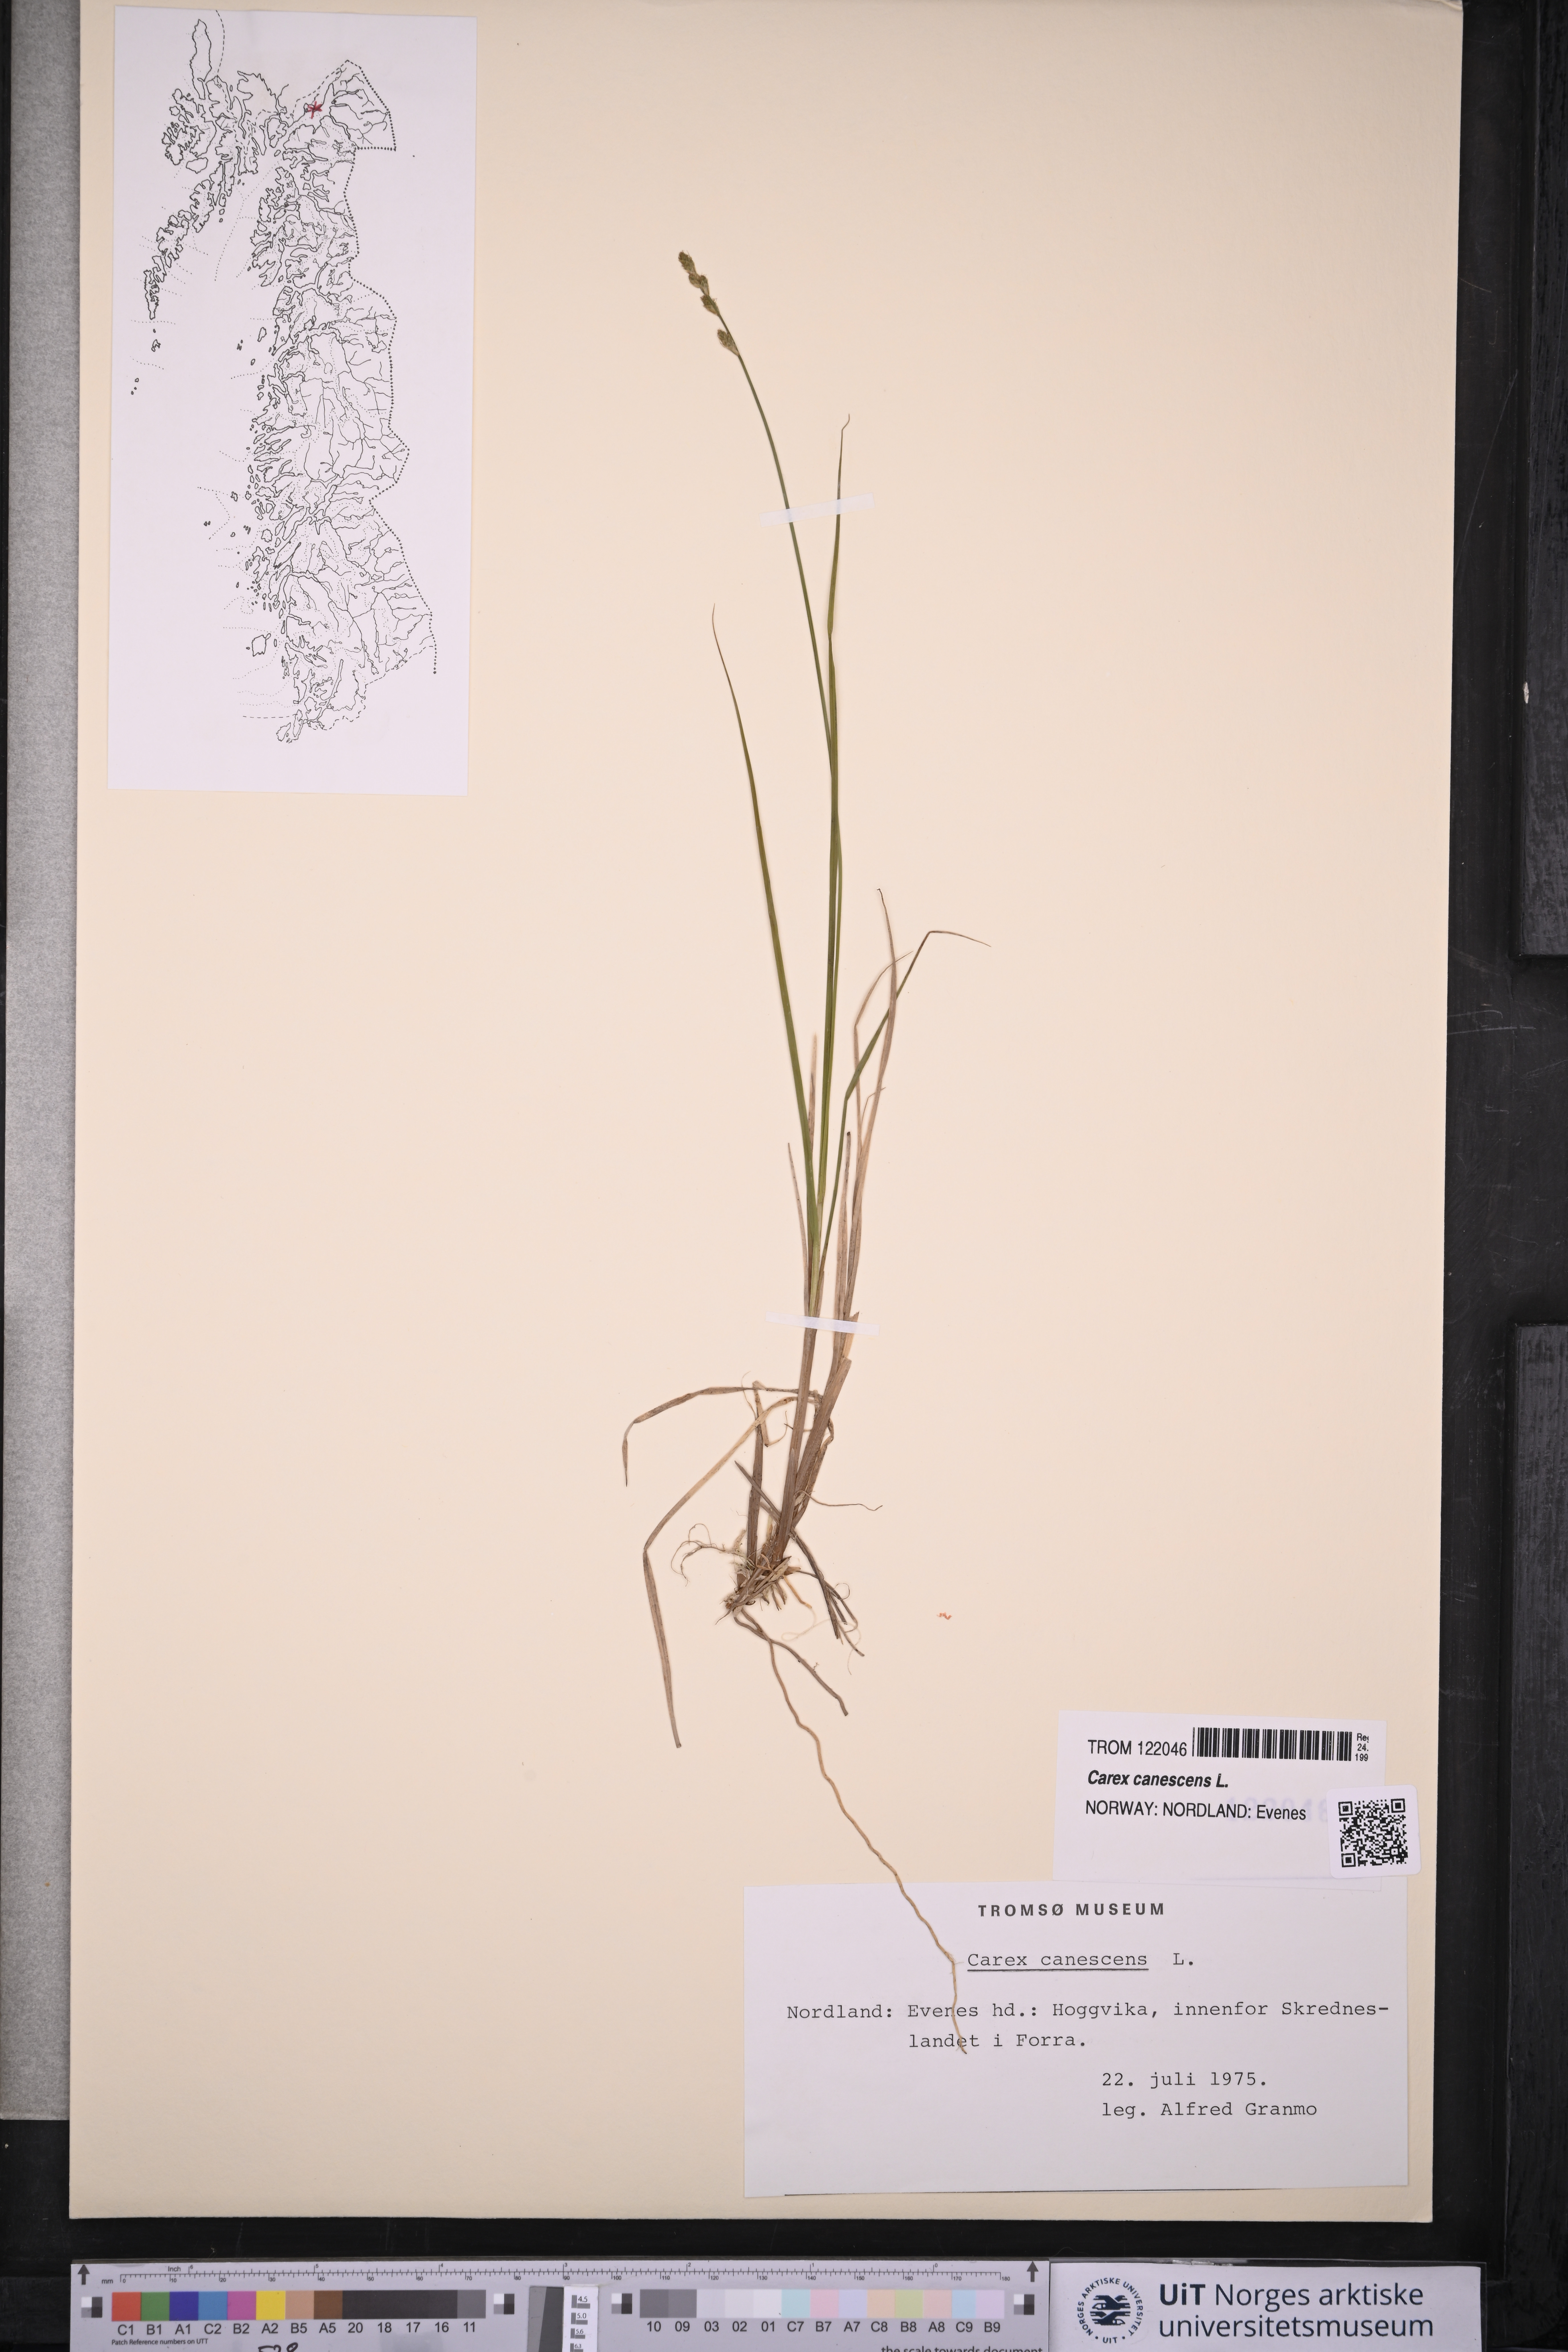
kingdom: Plantae
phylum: Tracheophyta
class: Liliopsida
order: Poales
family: Cyperaceae
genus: Carex
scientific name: Carex canescens
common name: White sedge
